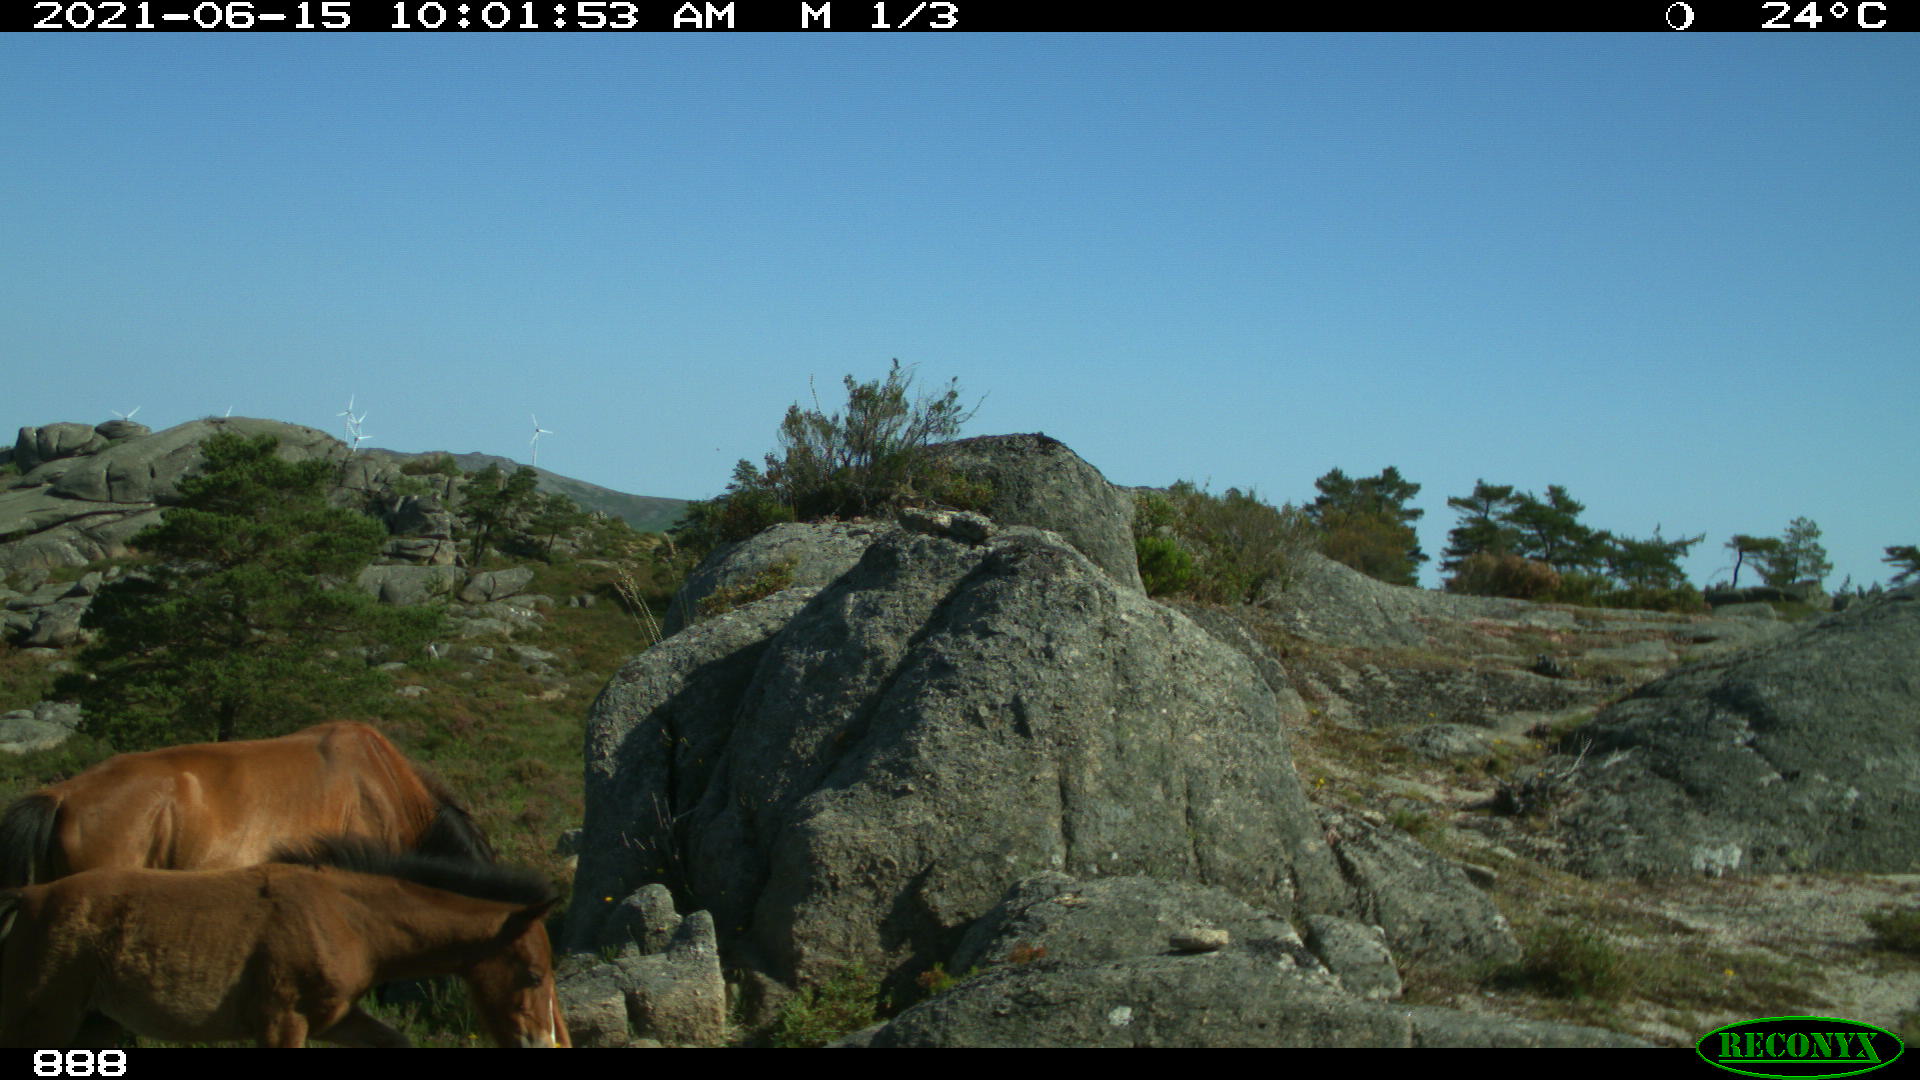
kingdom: Animalia
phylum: Chordata
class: Mammalia
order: Perissodactyla
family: Equidae
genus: Equus
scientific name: Equus caballus
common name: Horse
